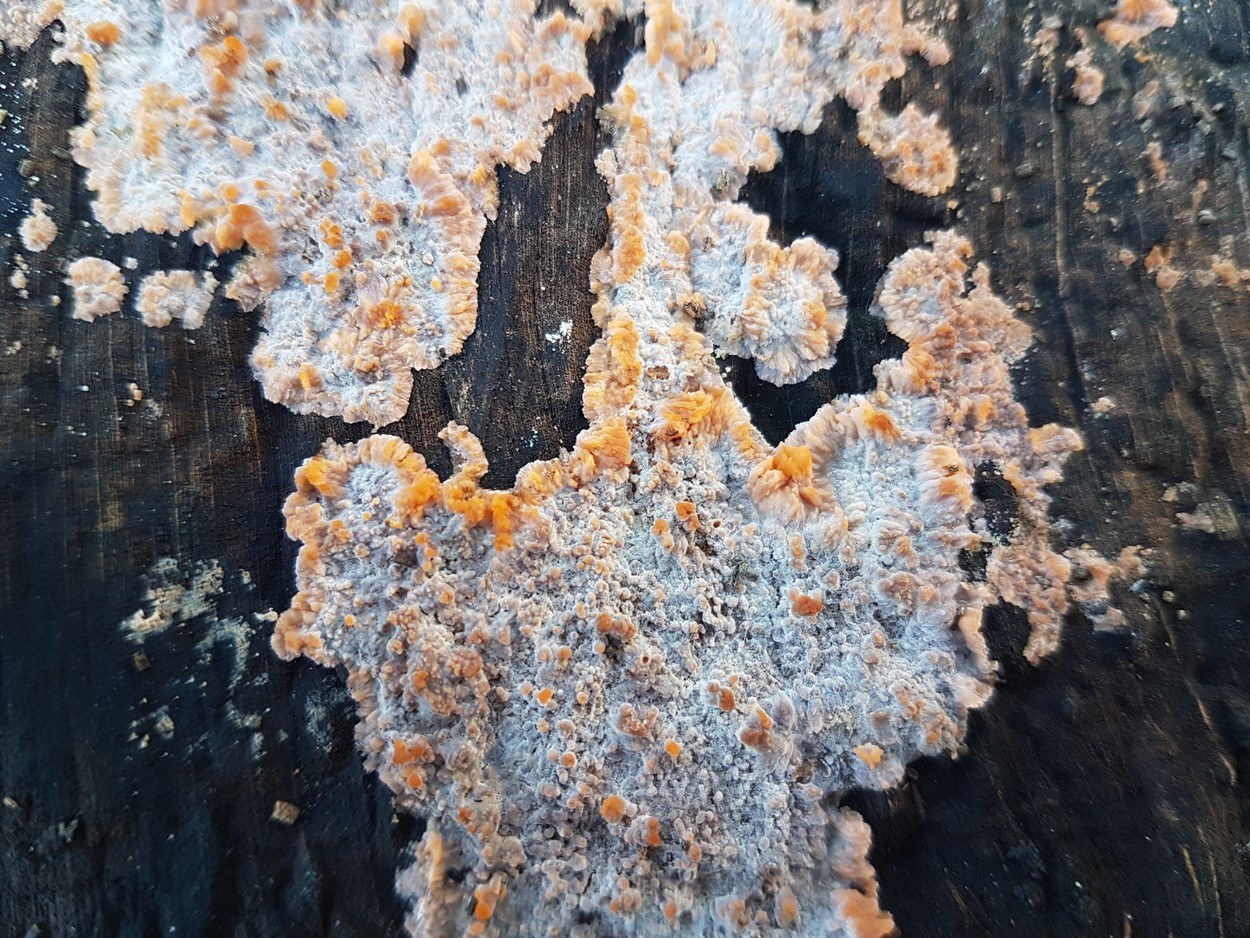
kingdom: Fungi
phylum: Basidiomycota
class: Agaricomycetes
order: Polyporales
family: Meruliaceae
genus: Phlebia
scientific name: Phlebia radiata
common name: stråle-åresvamp
